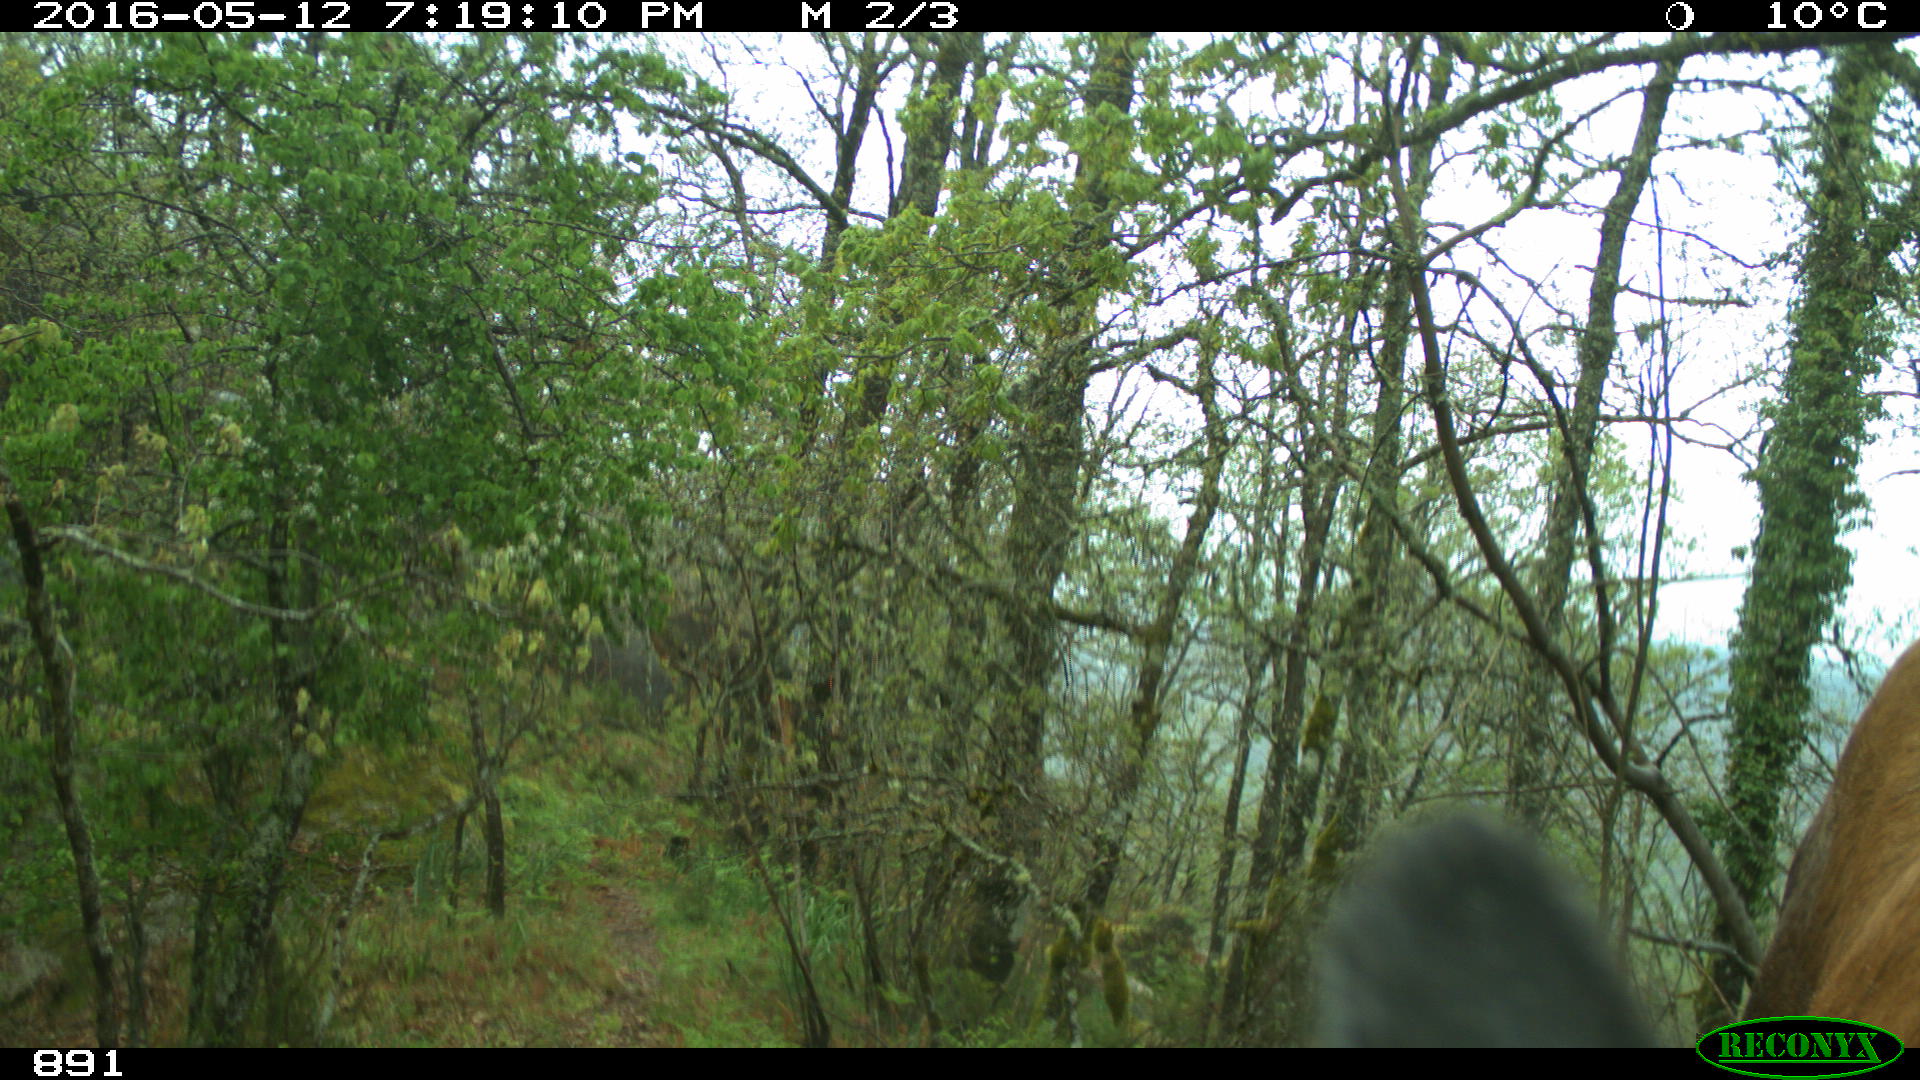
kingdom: Animalia
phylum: Chordata
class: Mammalia
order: Artiodactyla
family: Bovidae
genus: Bos
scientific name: Bos taurus
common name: Domesticated cattle
